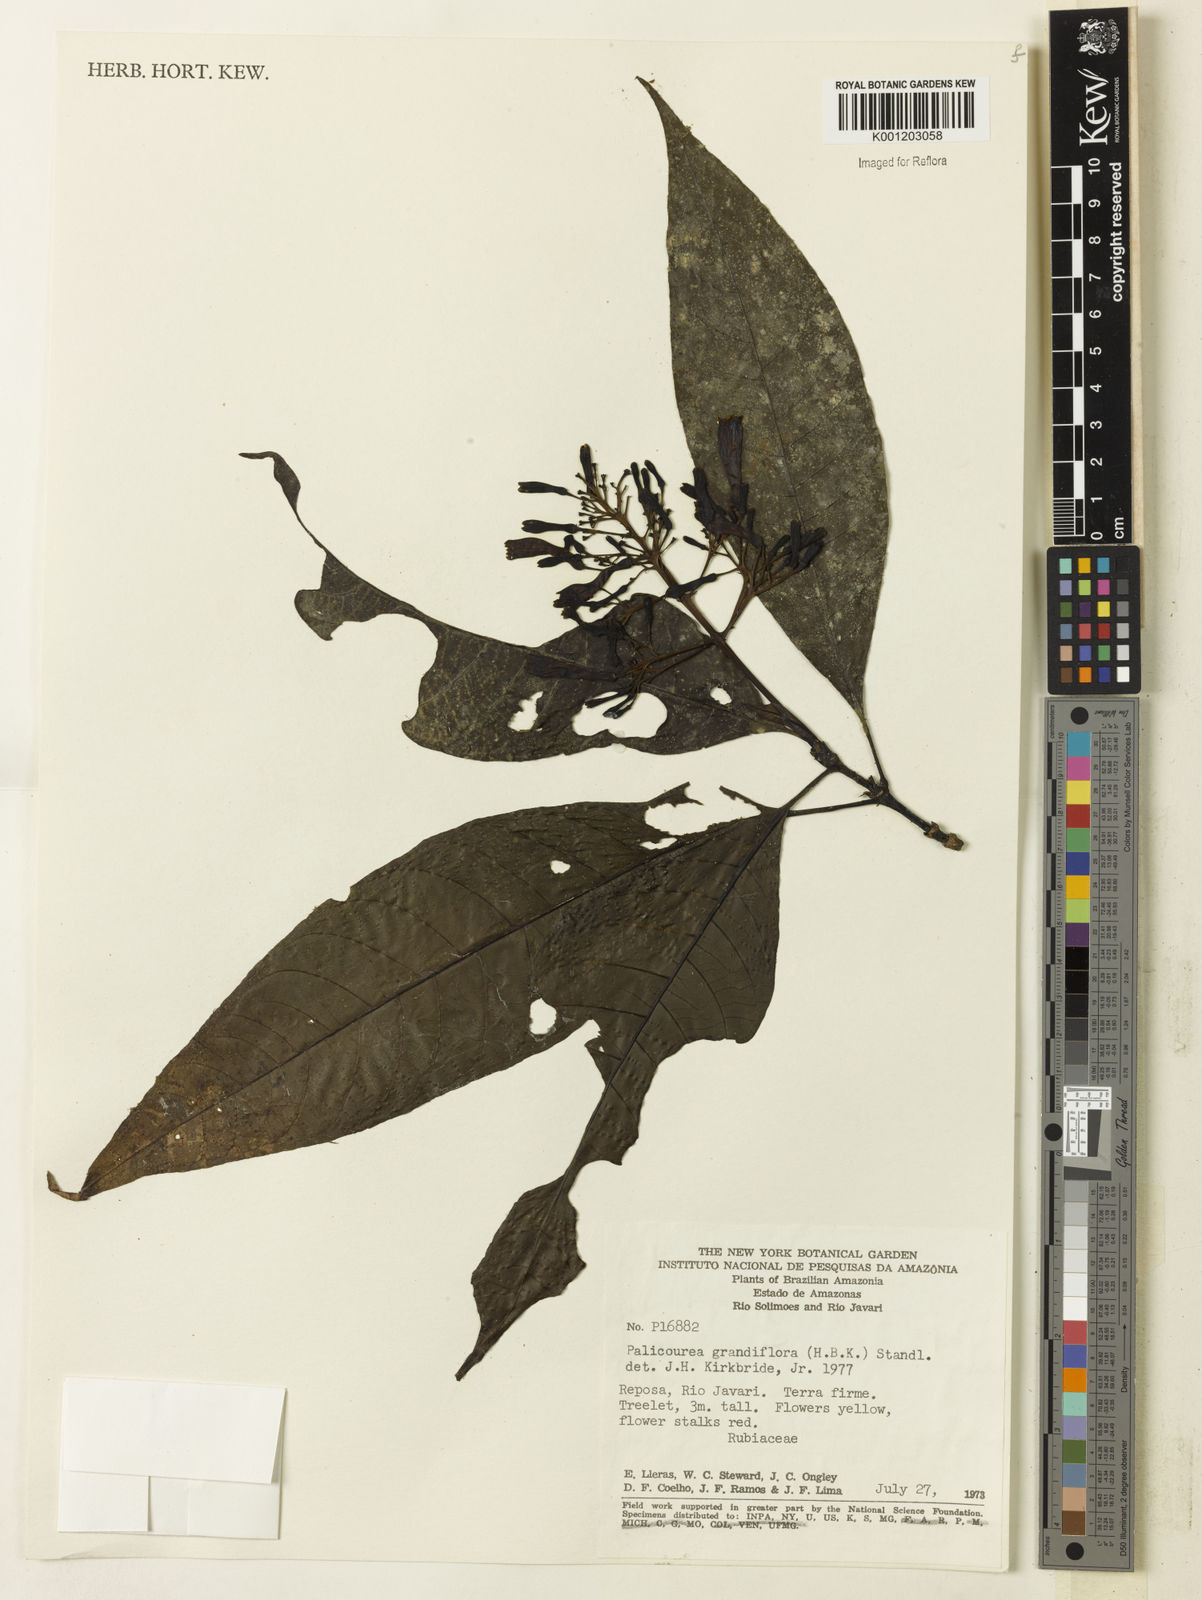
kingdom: Plantae
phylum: Tracheophyta
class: Magnoliopsida
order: Gentianales
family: Rubiaceae
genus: Palicourea
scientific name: Palicourea grandiflora
